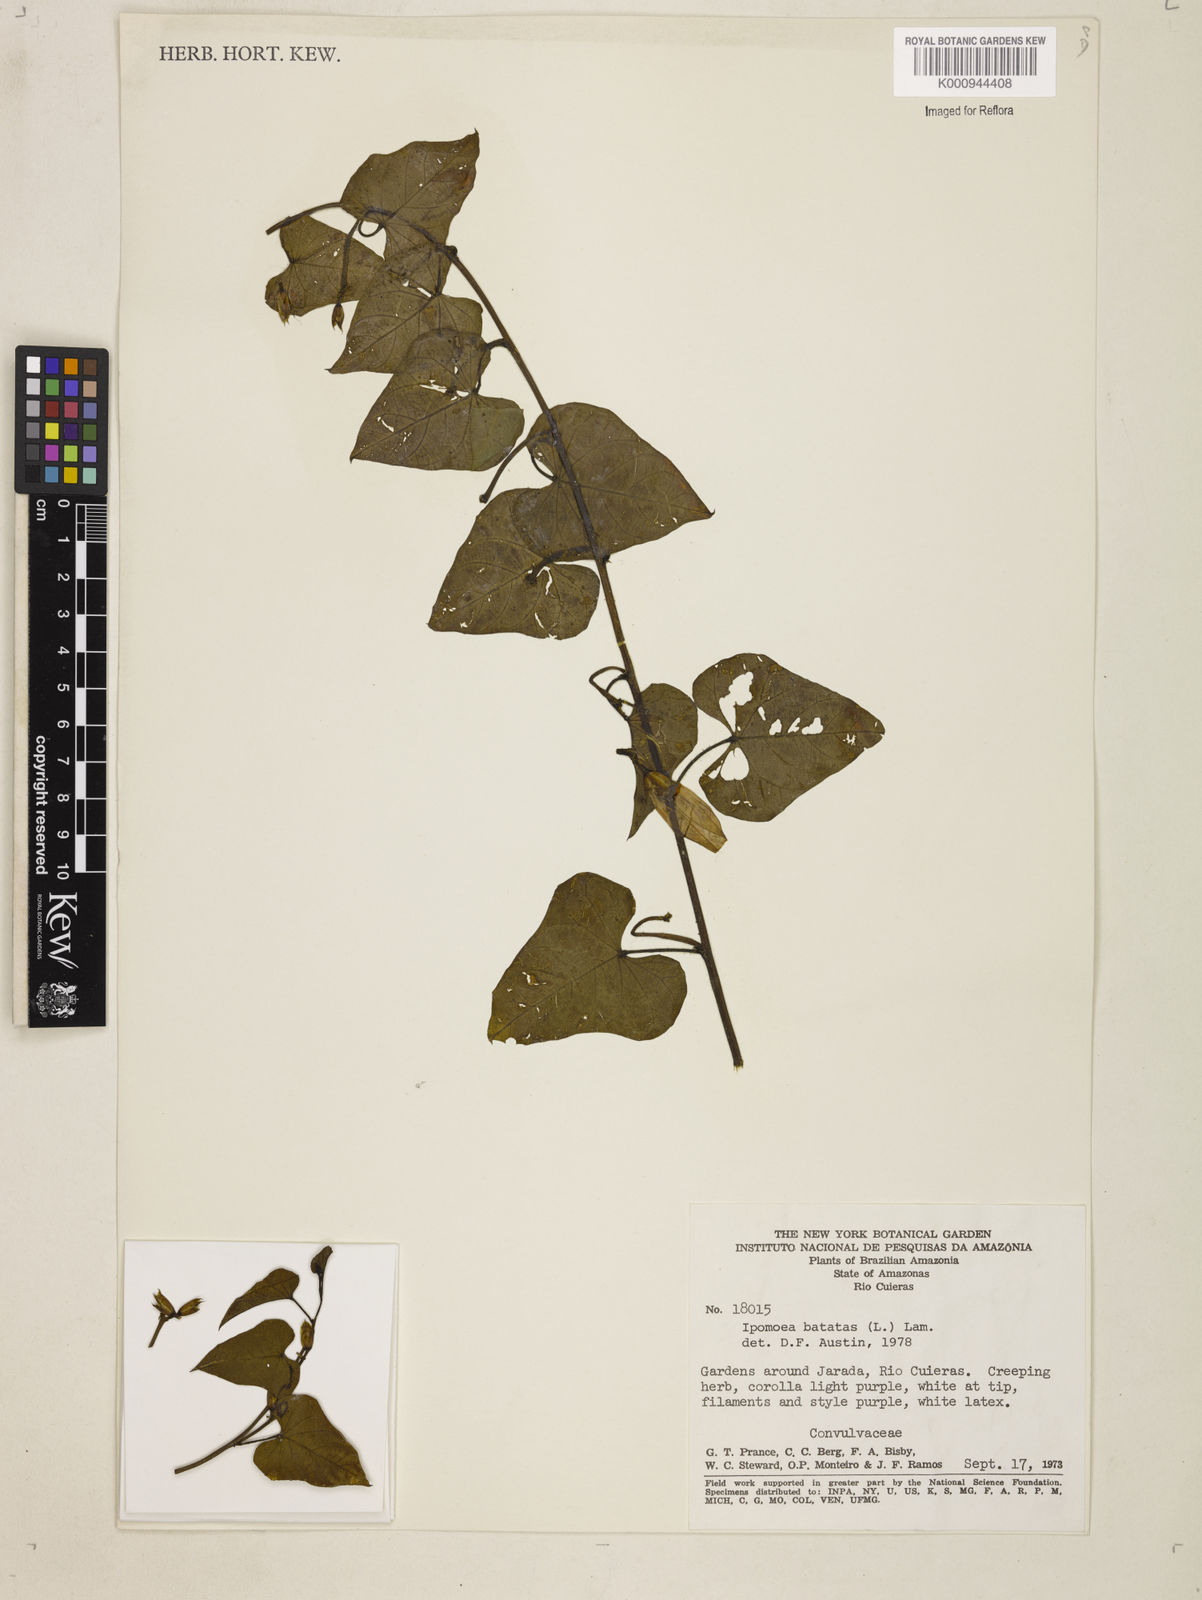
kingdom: Plantae
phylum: Tracheophyta
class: Magnoliopsida
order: Solanales
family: Convolvulaceae
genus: Ipomoea
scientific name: Ipomoea batatas
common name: Sweet-potato
